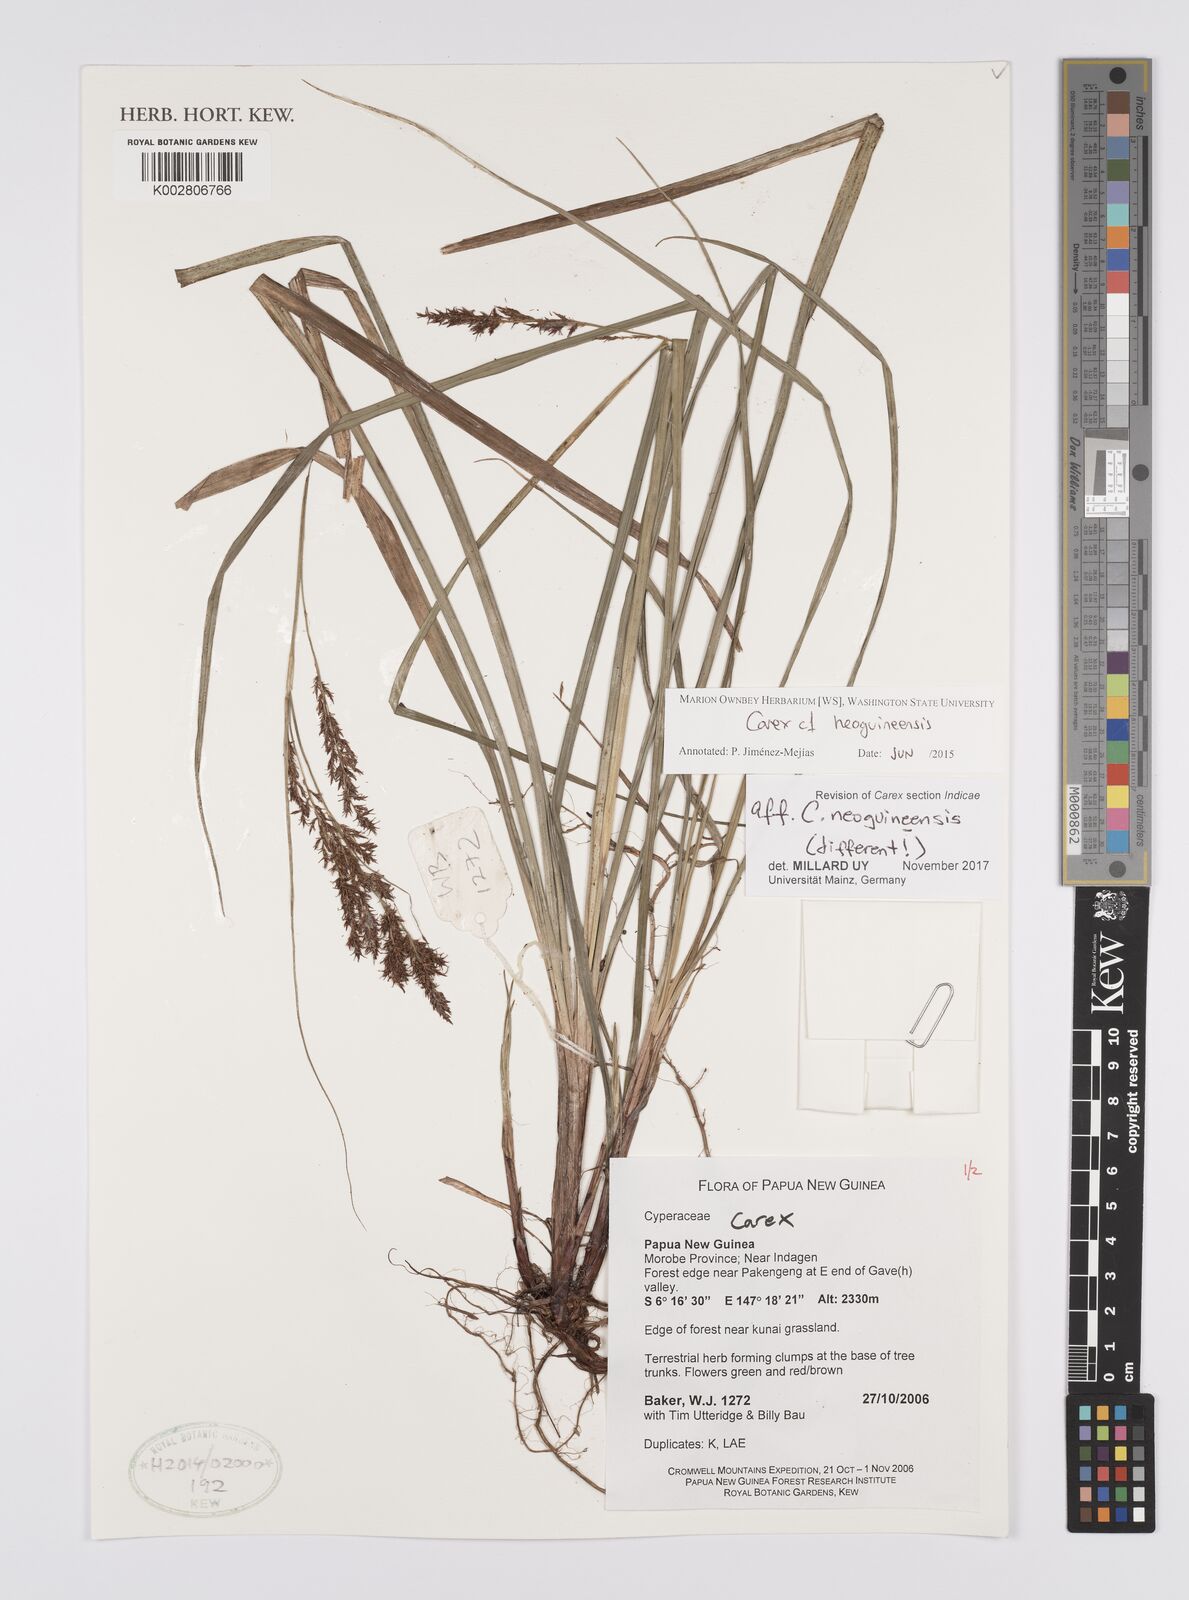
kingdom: Plantae
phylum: Tracheophyta
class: Liliopsida
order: Poales
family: Cyperaceae
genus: Carex
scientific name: Carex filicina
